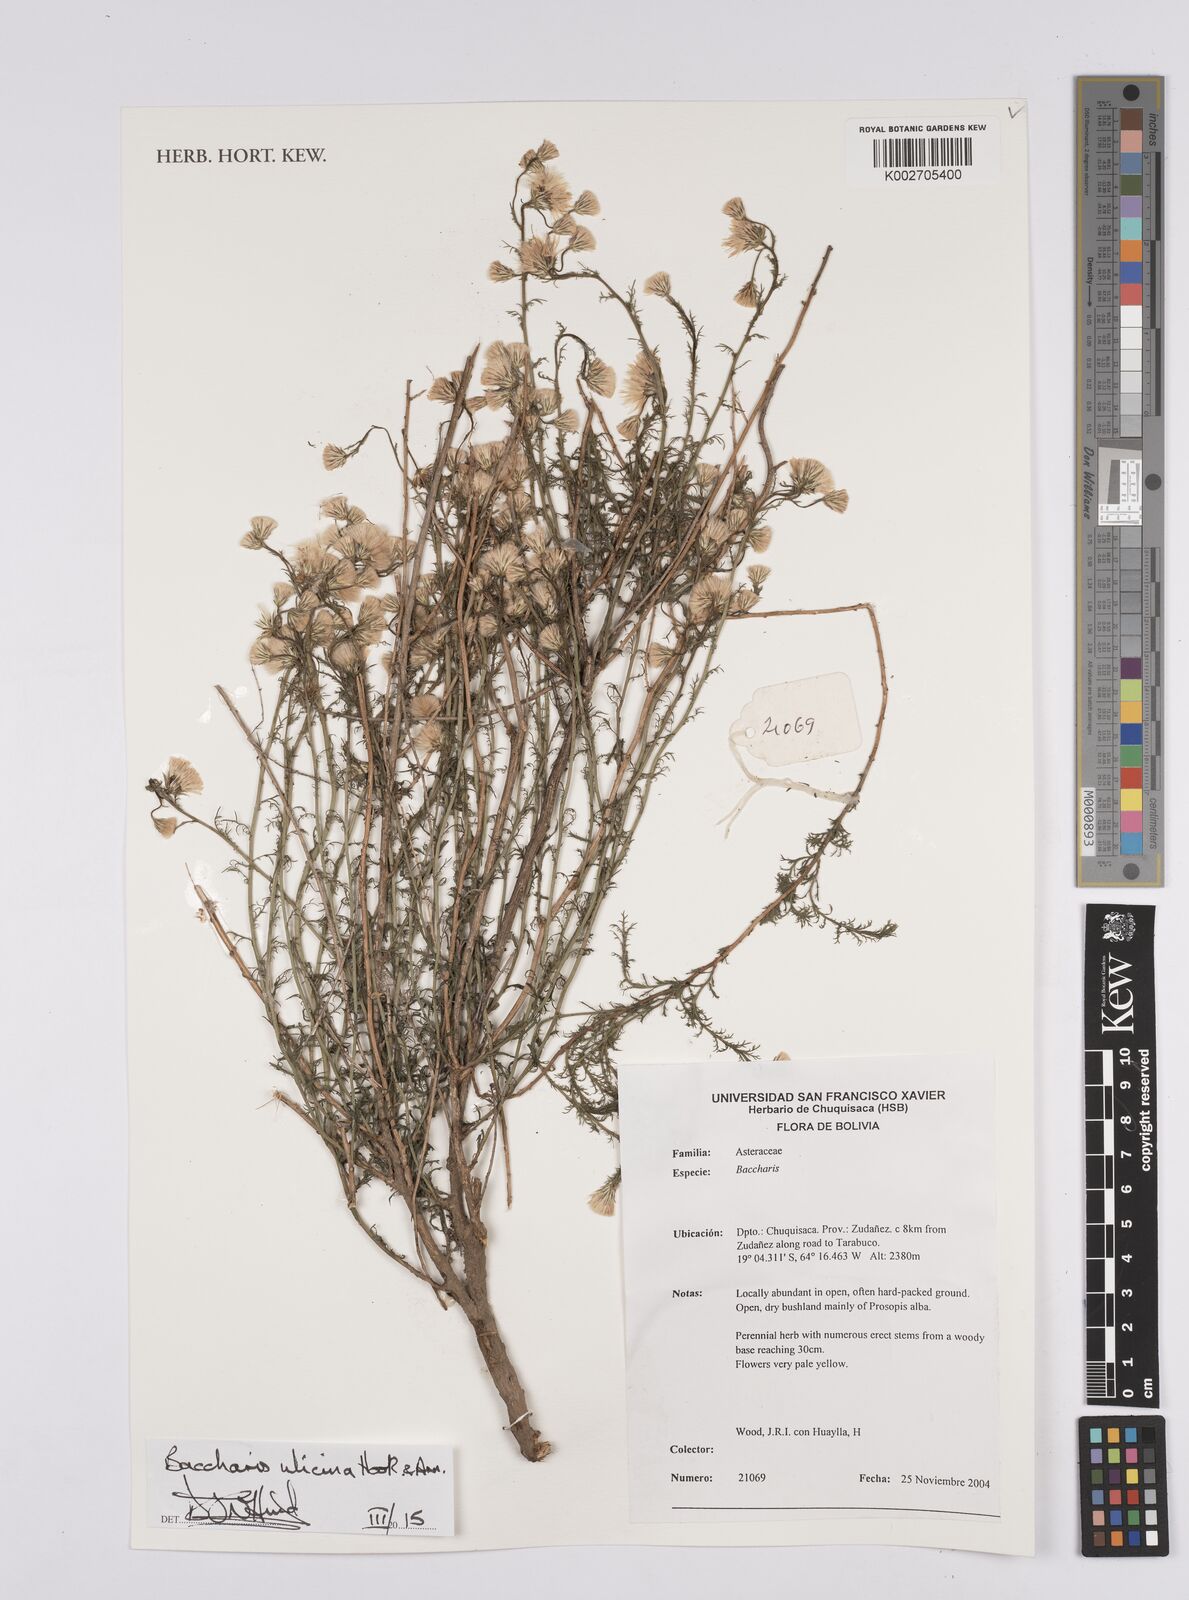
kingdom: Plantae
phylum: Tracheophyta
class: Magnoliopsida
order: Asterales
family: Asteraceae
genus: Baccharis
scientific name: Baccharis ulicina
